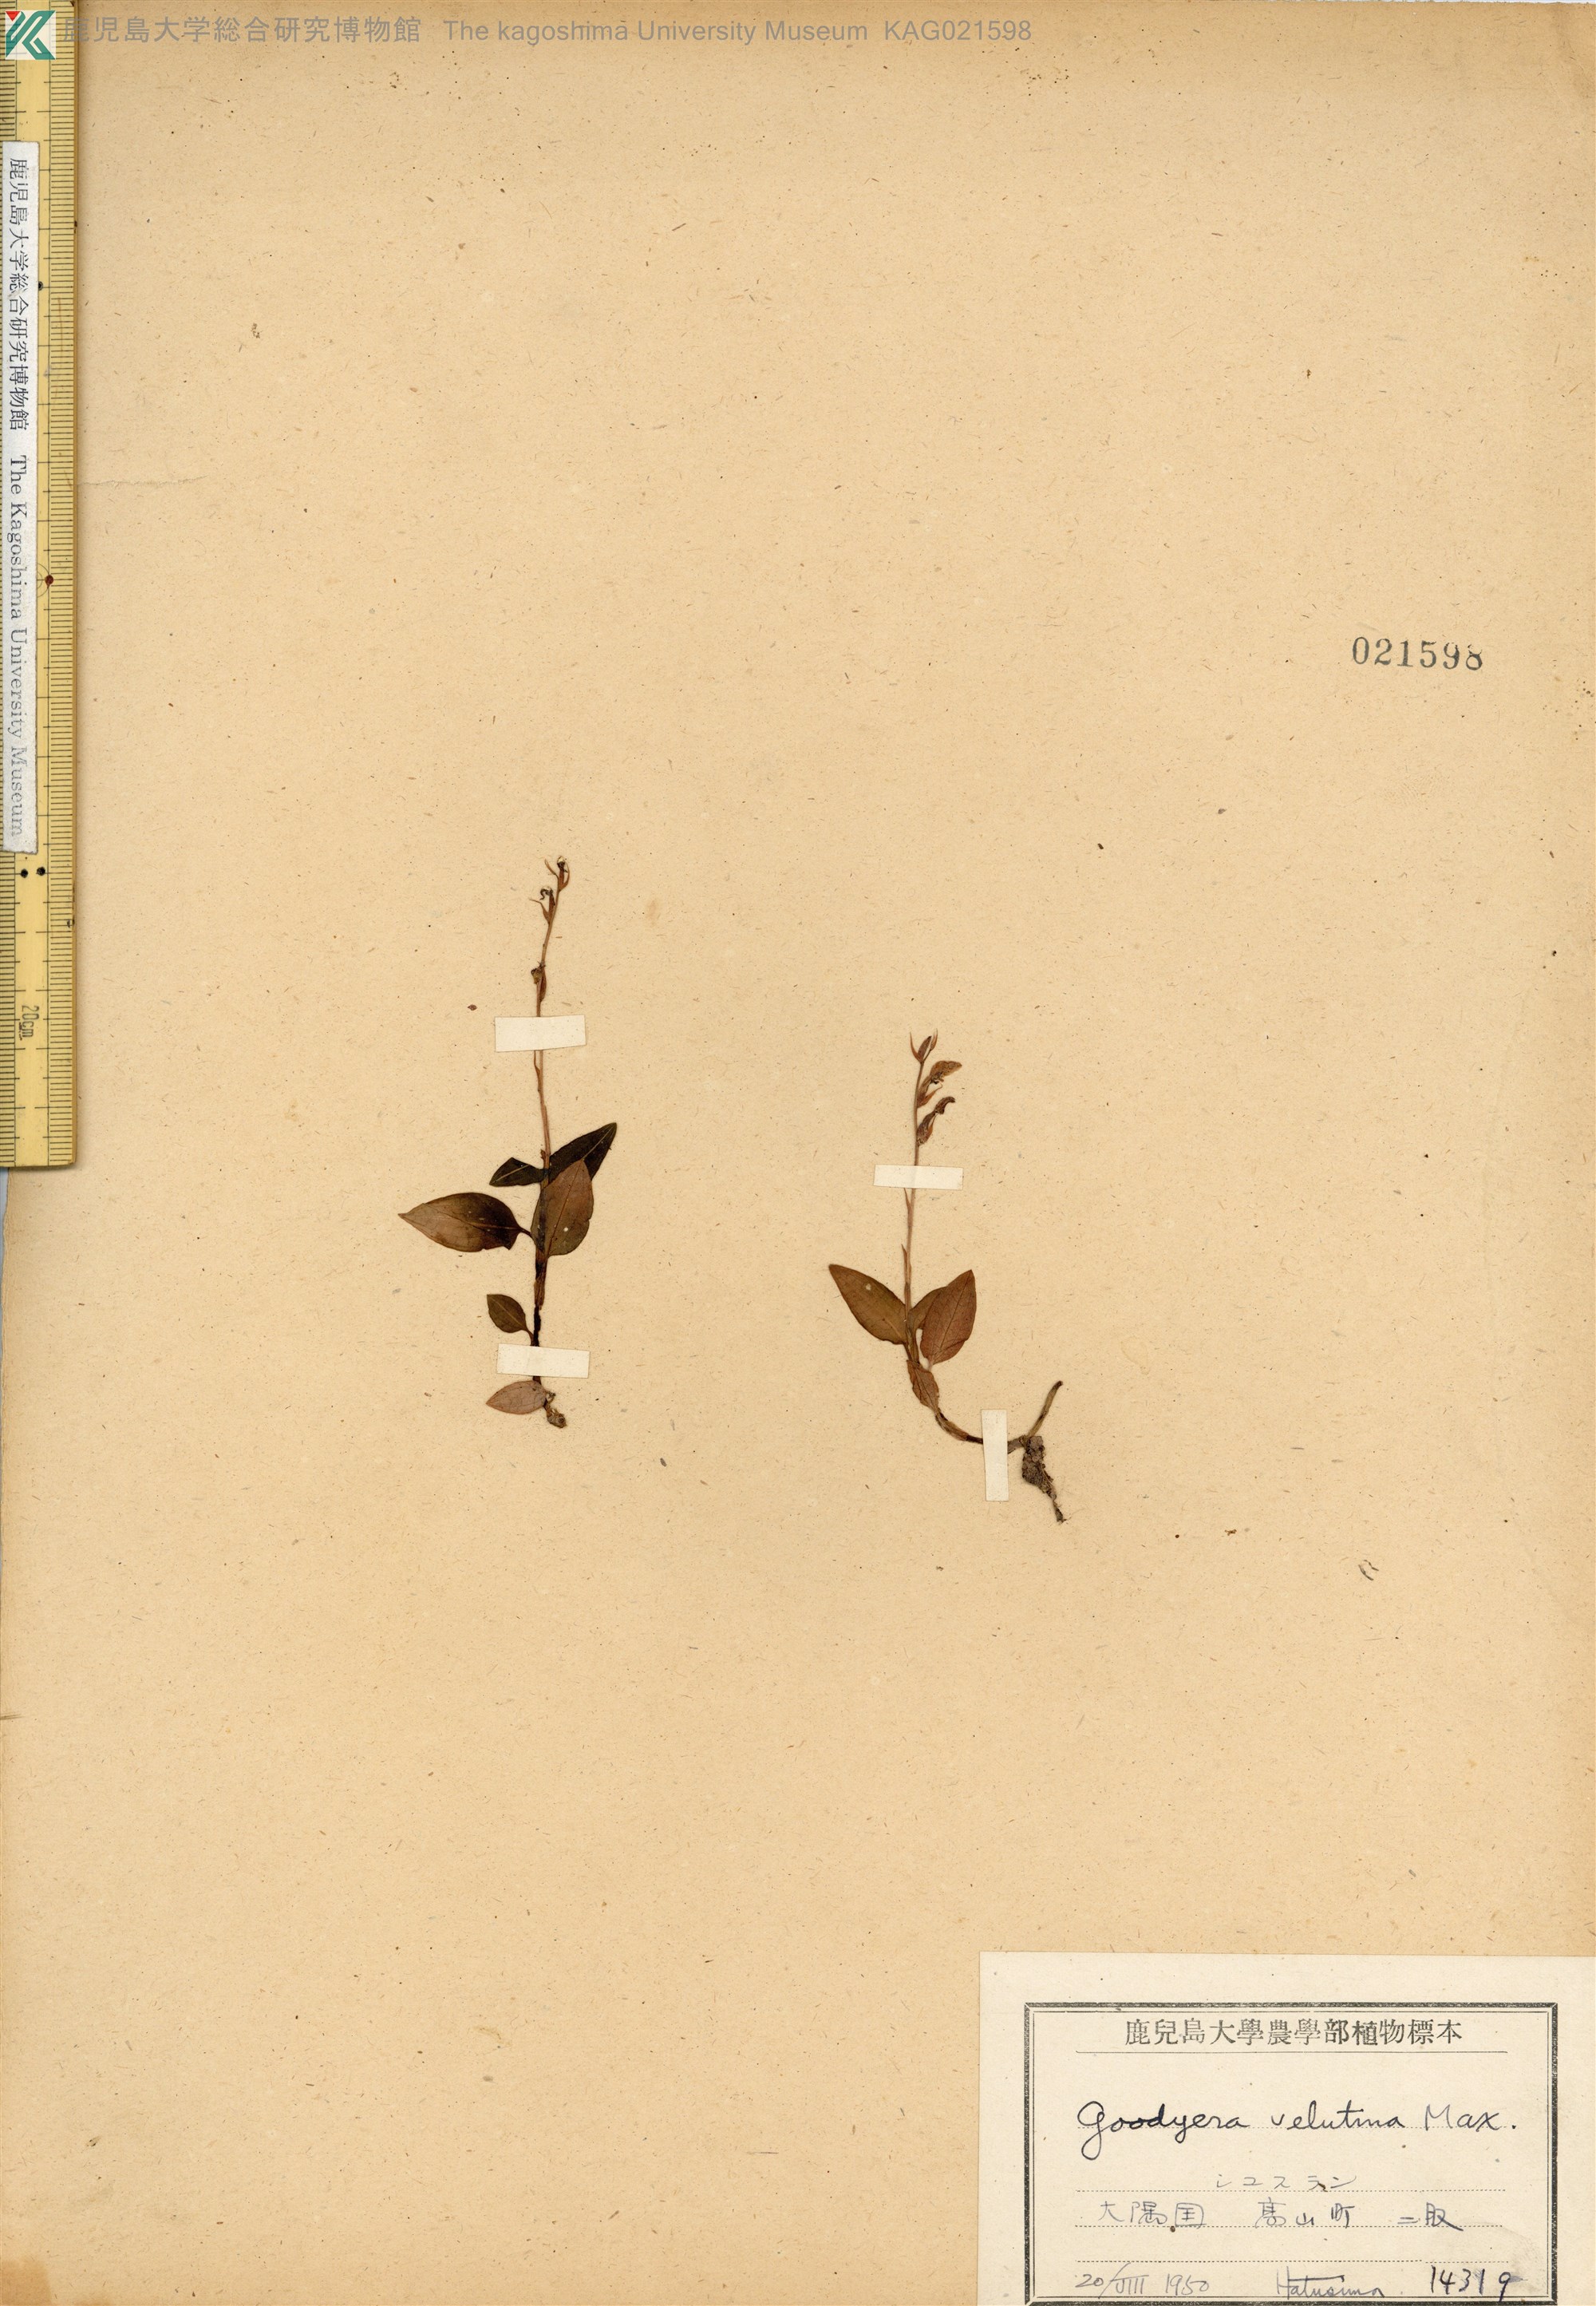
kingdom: Plantae
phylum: Tracheophyta
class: Liliopsida
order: Asparagales
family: Orchidaceae
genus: Goodyera
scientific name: Goodyera velutina
